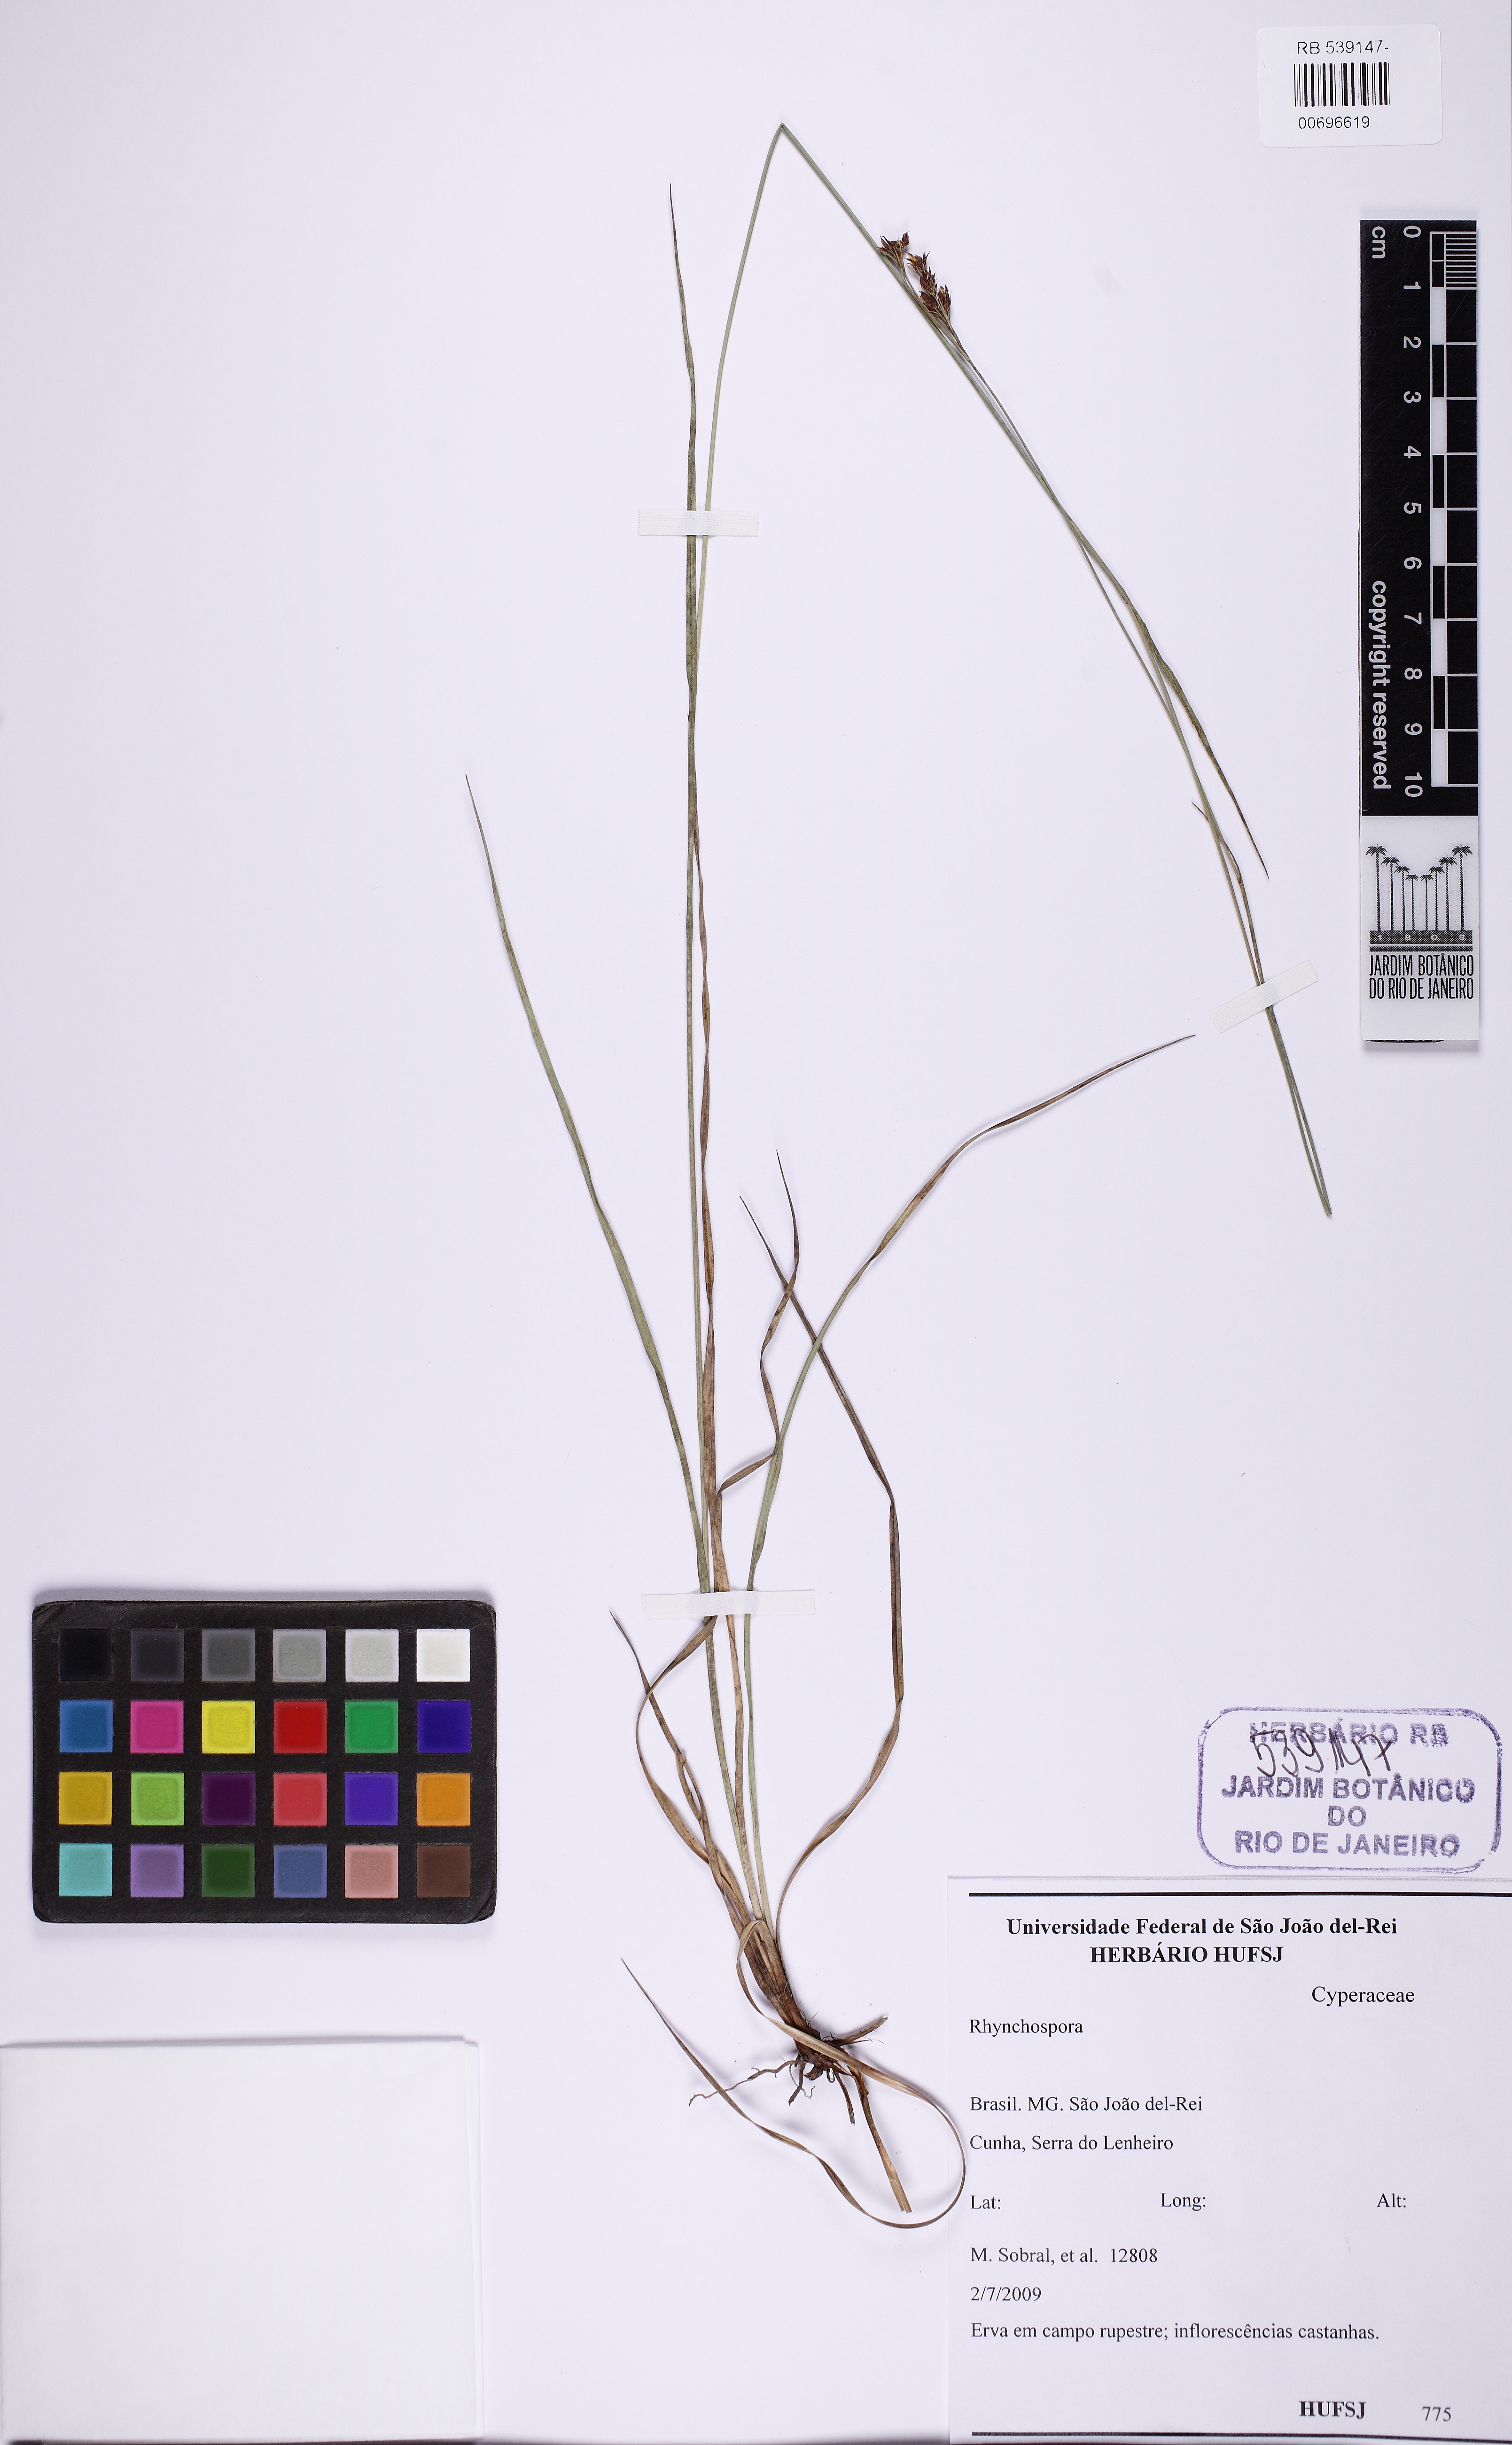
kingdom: Plantae
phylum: Tracheophyta
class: Liliopsida
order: Poales
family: Cyperaceae
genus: Rhynchospora
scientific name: Rhynchospora rugosa
